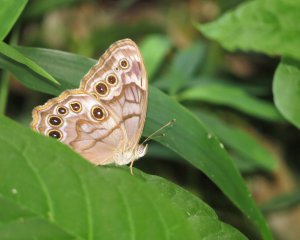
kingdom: Animalia
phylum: Arthropoda
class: Insecta
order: Lepidoptera
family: Nymphalidae
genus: Lethe
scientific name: Lethe creola
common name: Creole Pearly-Eye
